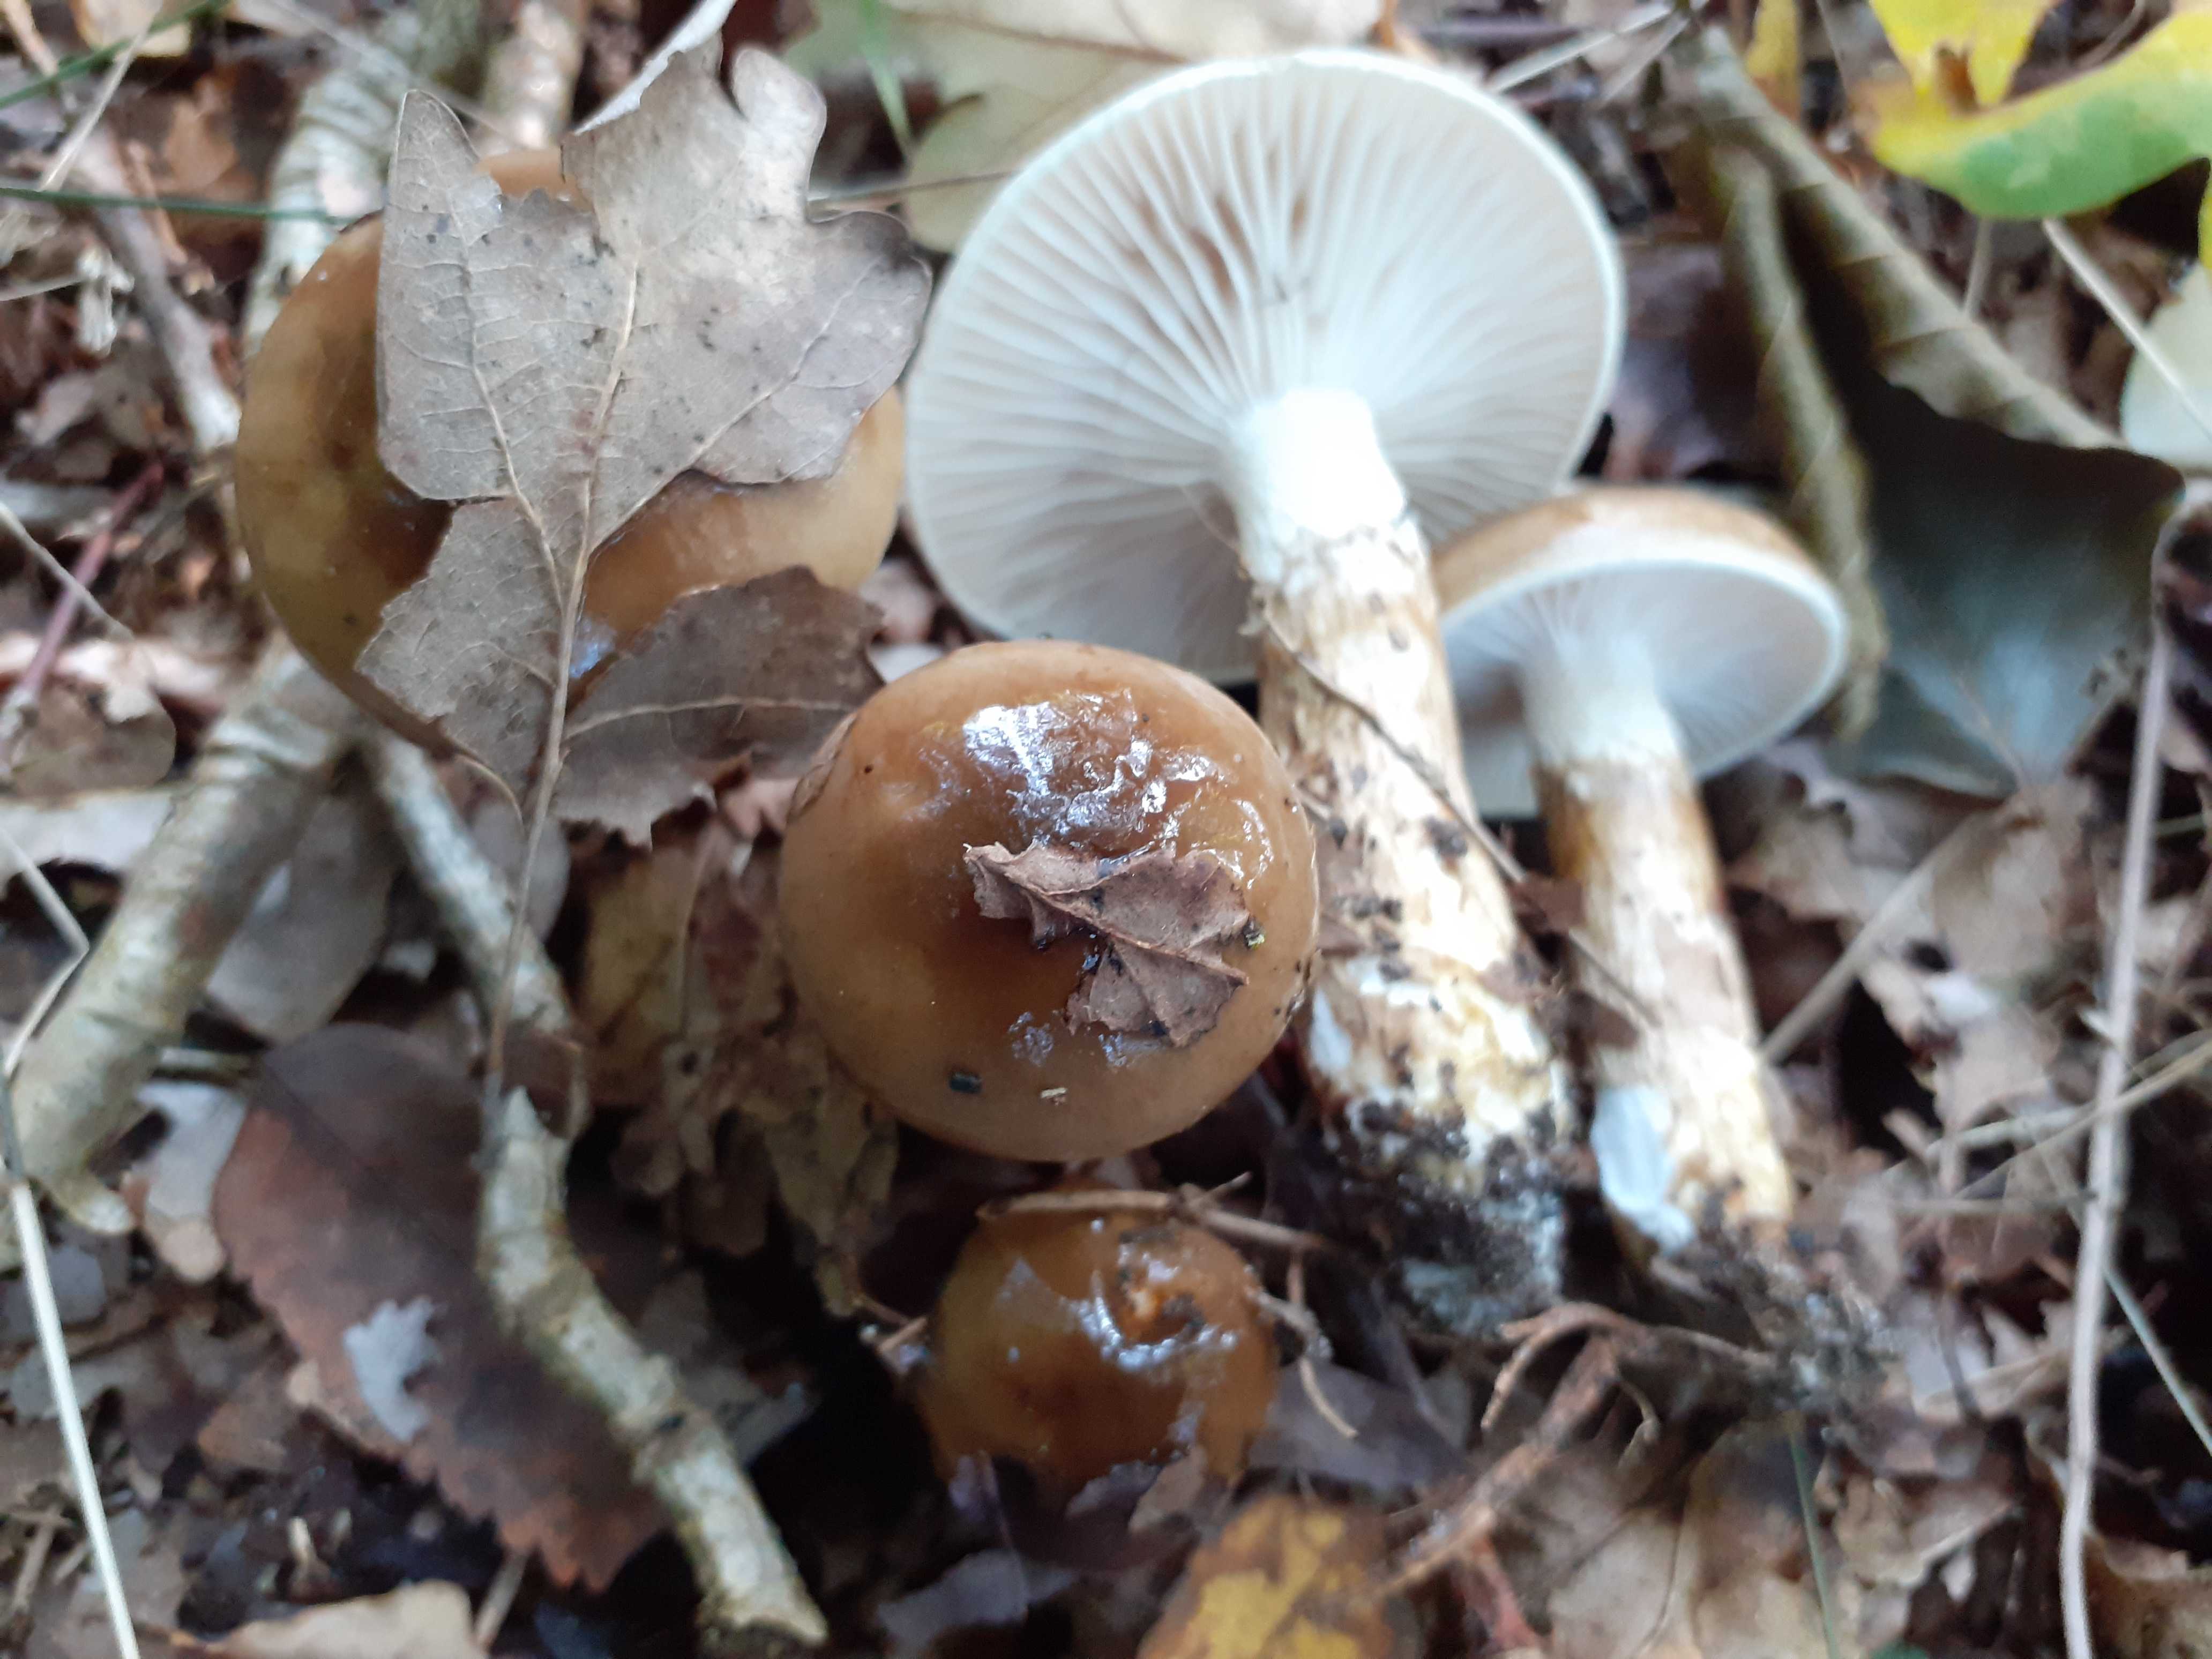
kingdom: Fungi
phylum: Basidiomycota
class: Agaricomycetes
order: Agaricales
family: Hygrophoraceae
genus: Hygrophorus
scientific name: Hygrophorus glutinifer
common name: tvefarvet sneglehat
